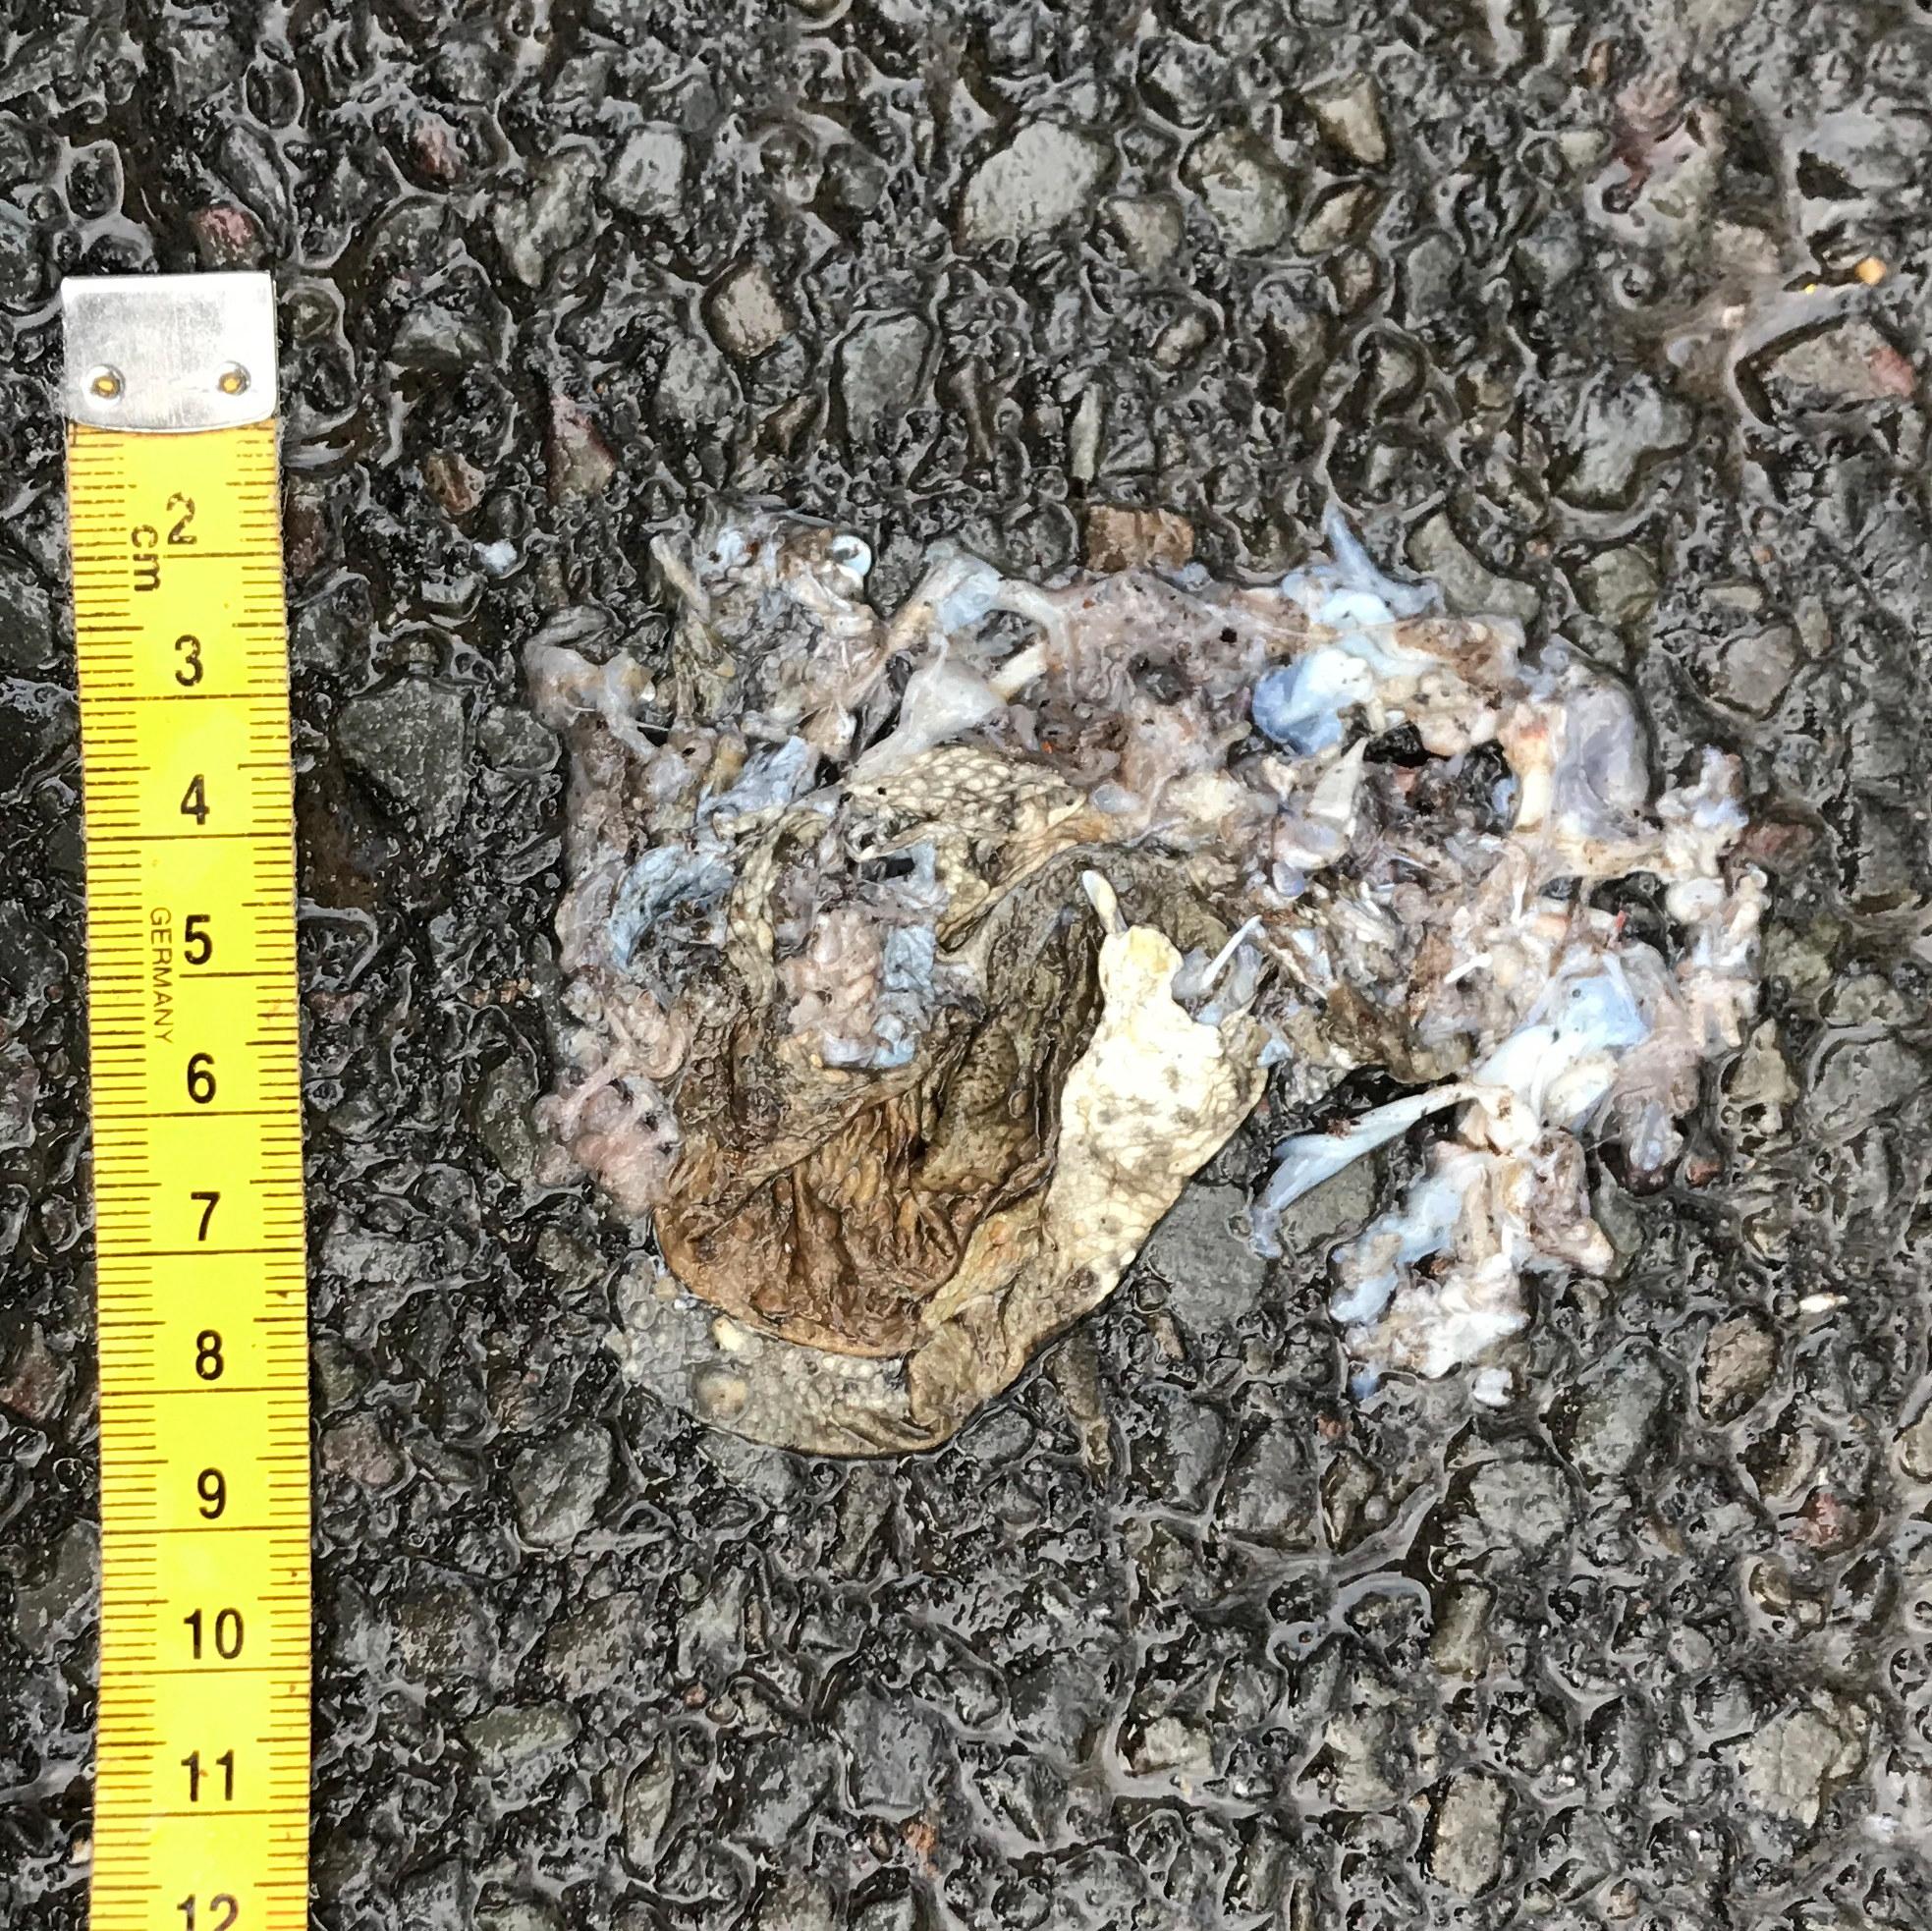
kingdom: Animalia
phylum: Chordata
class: Amphibia
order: Anura
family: Bufonidae
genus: Bufo
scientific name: Bufo bufo
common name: Common toad
